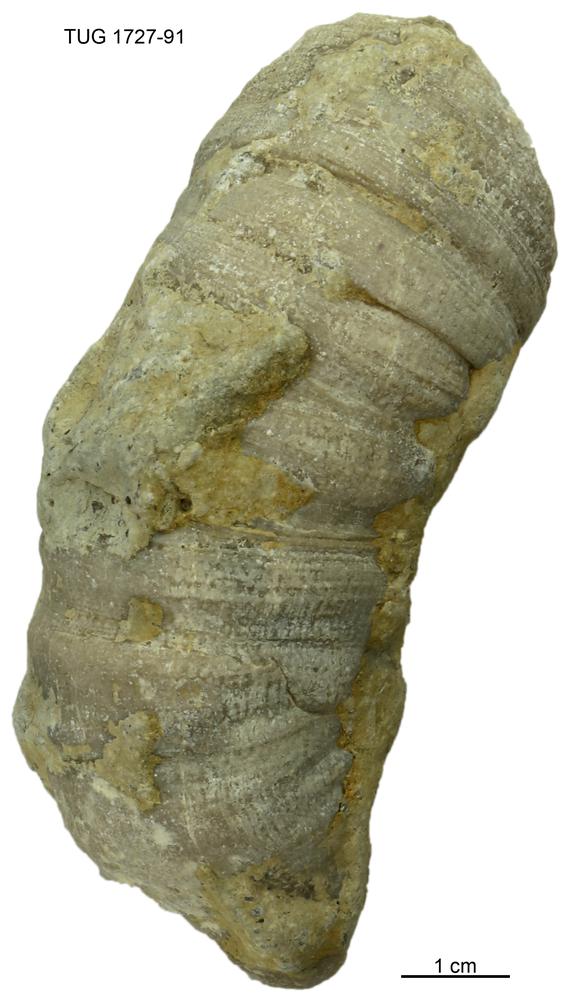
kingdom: Animalia
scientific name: Animalia
